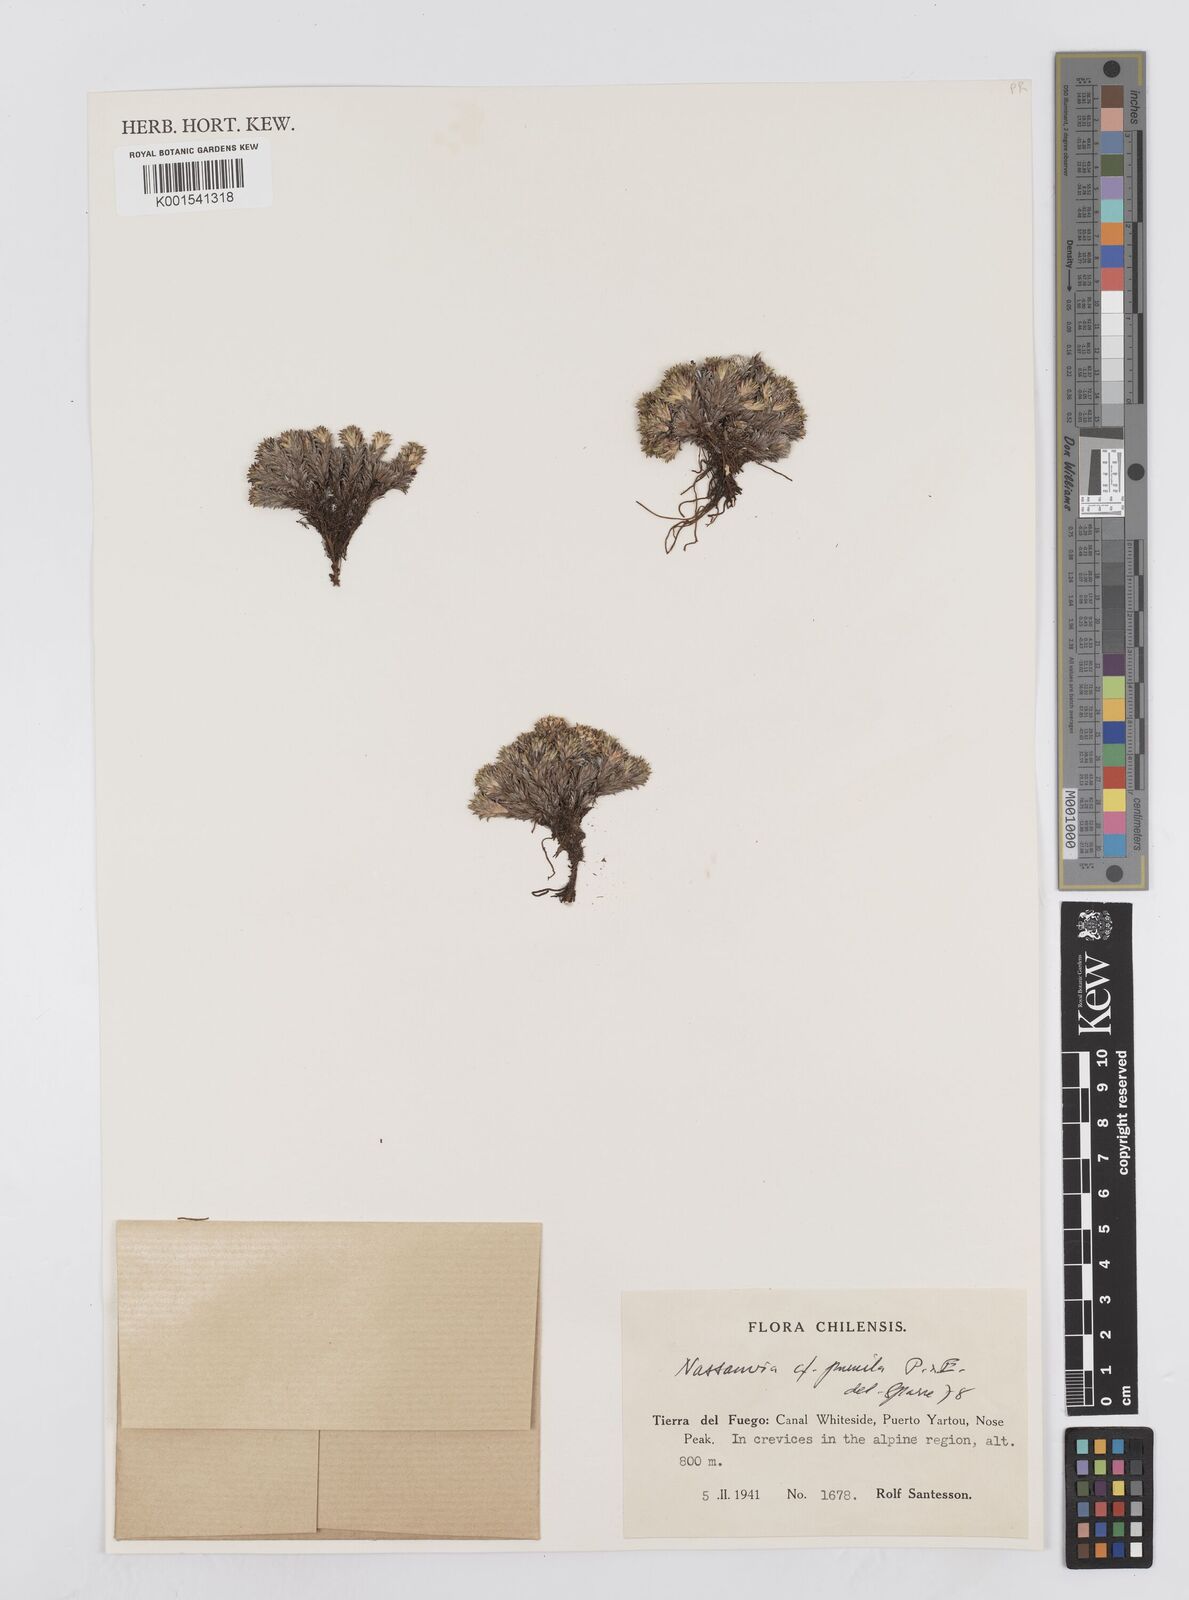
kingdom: Plantae
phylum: Tracheophyta
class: Magnoliopsida
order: Asterales
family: Asteraceae
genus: Nassauvia
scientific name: Nassauvia pygmaea
